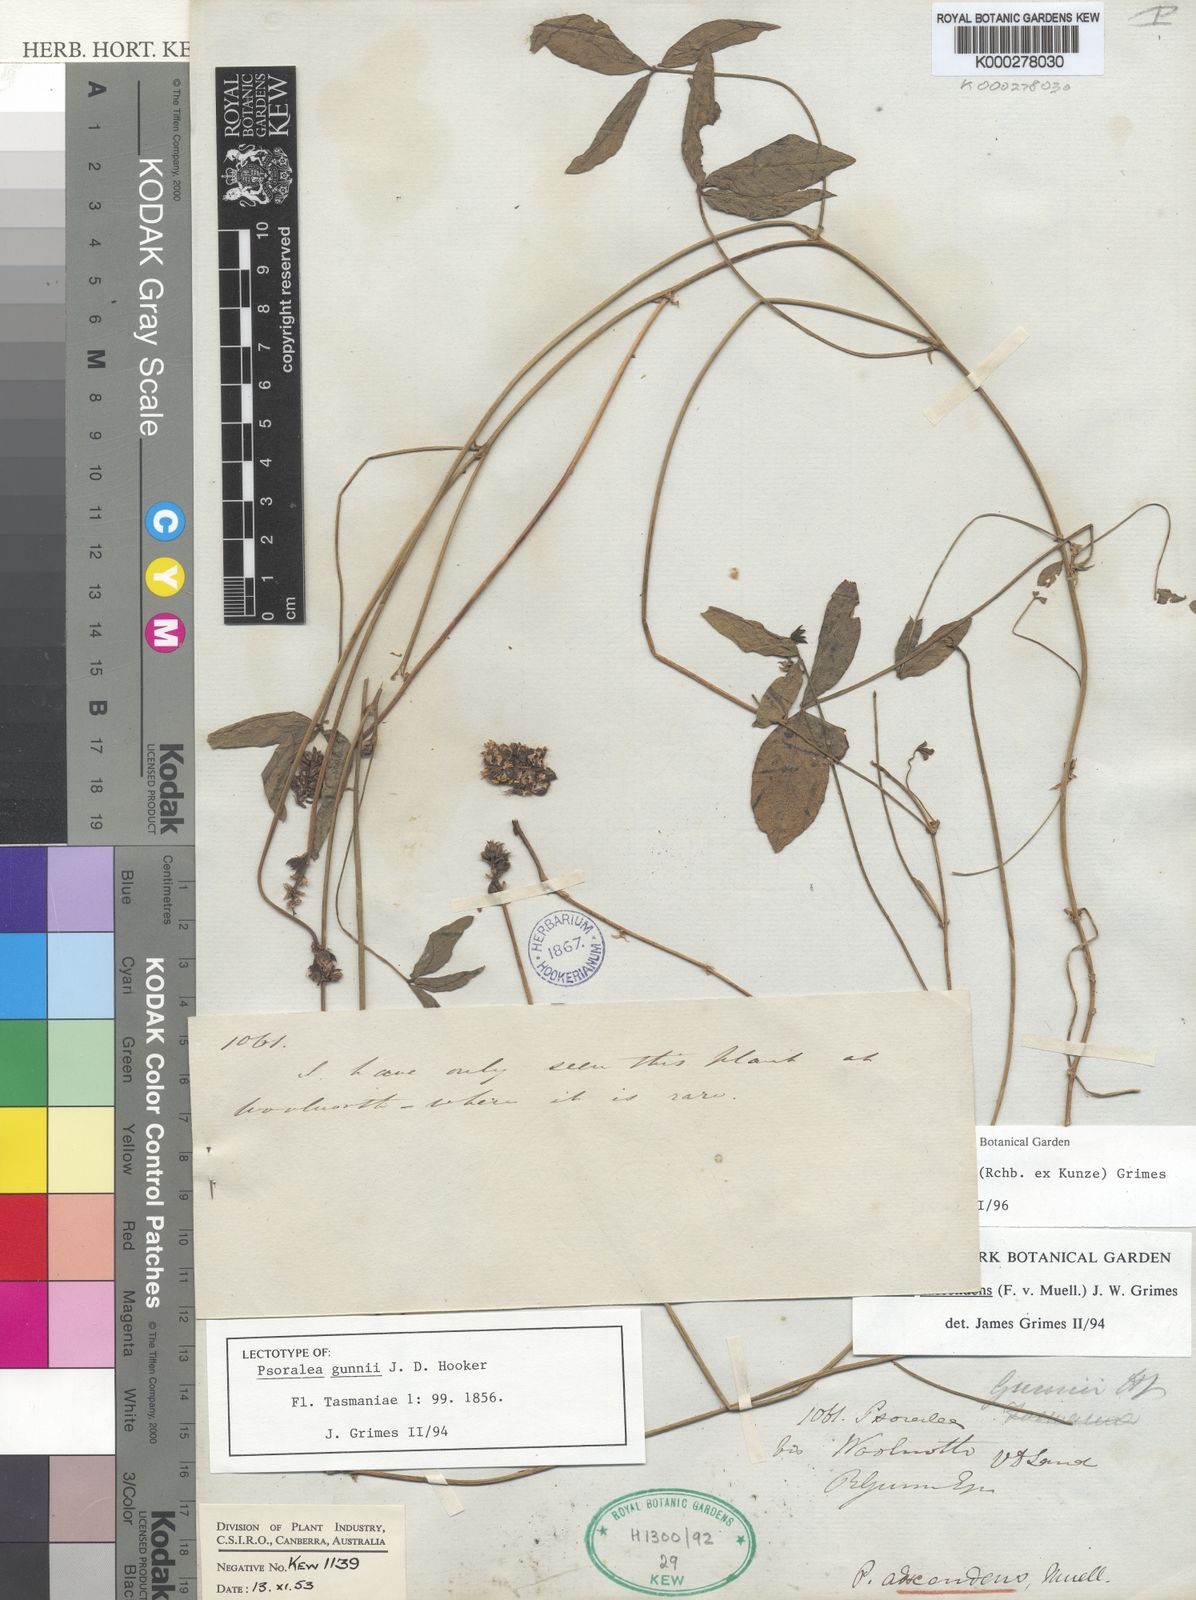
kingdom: Plantae
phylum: Tracheophyta
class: Magnoliopsida
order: Fabales
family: Fabaceae
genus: Cullen
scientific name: Cullen microcephalum
